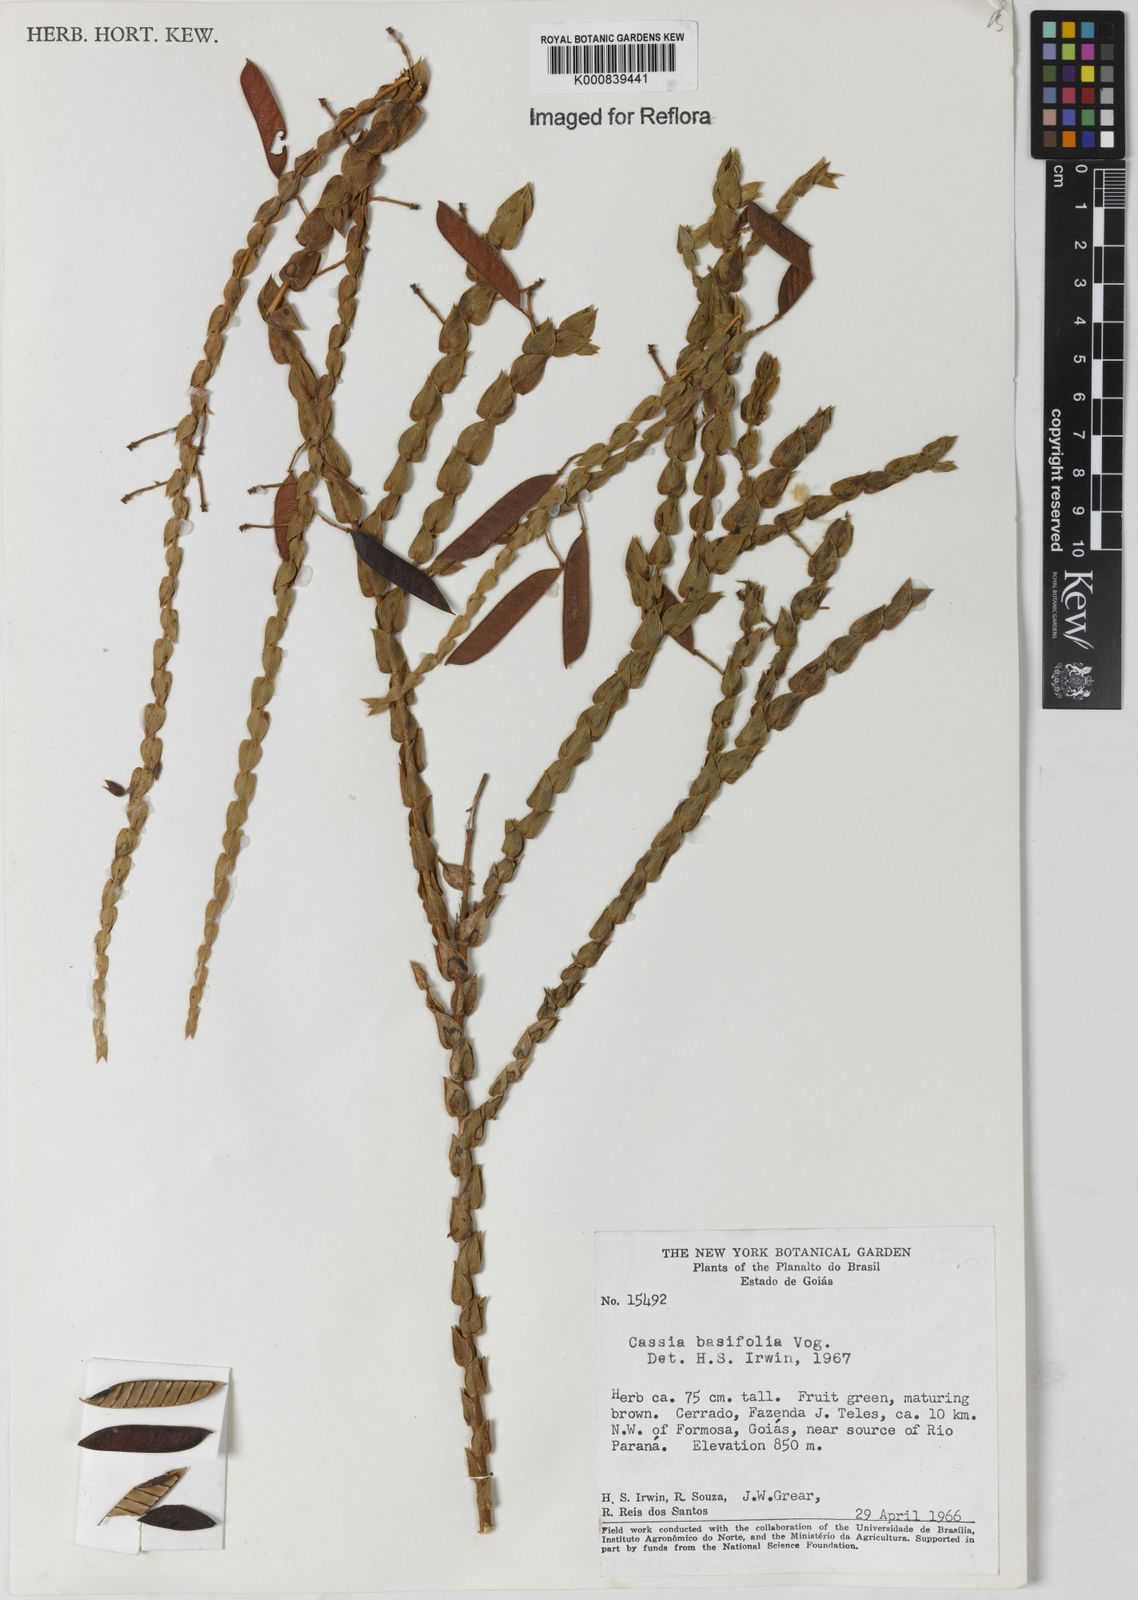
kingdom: Plantae
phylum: Tracheophyta
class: Magnoliopsida
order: Fabales
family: Fabaceae
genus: Chamaecrista
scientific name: Chamaecrista basifolia
